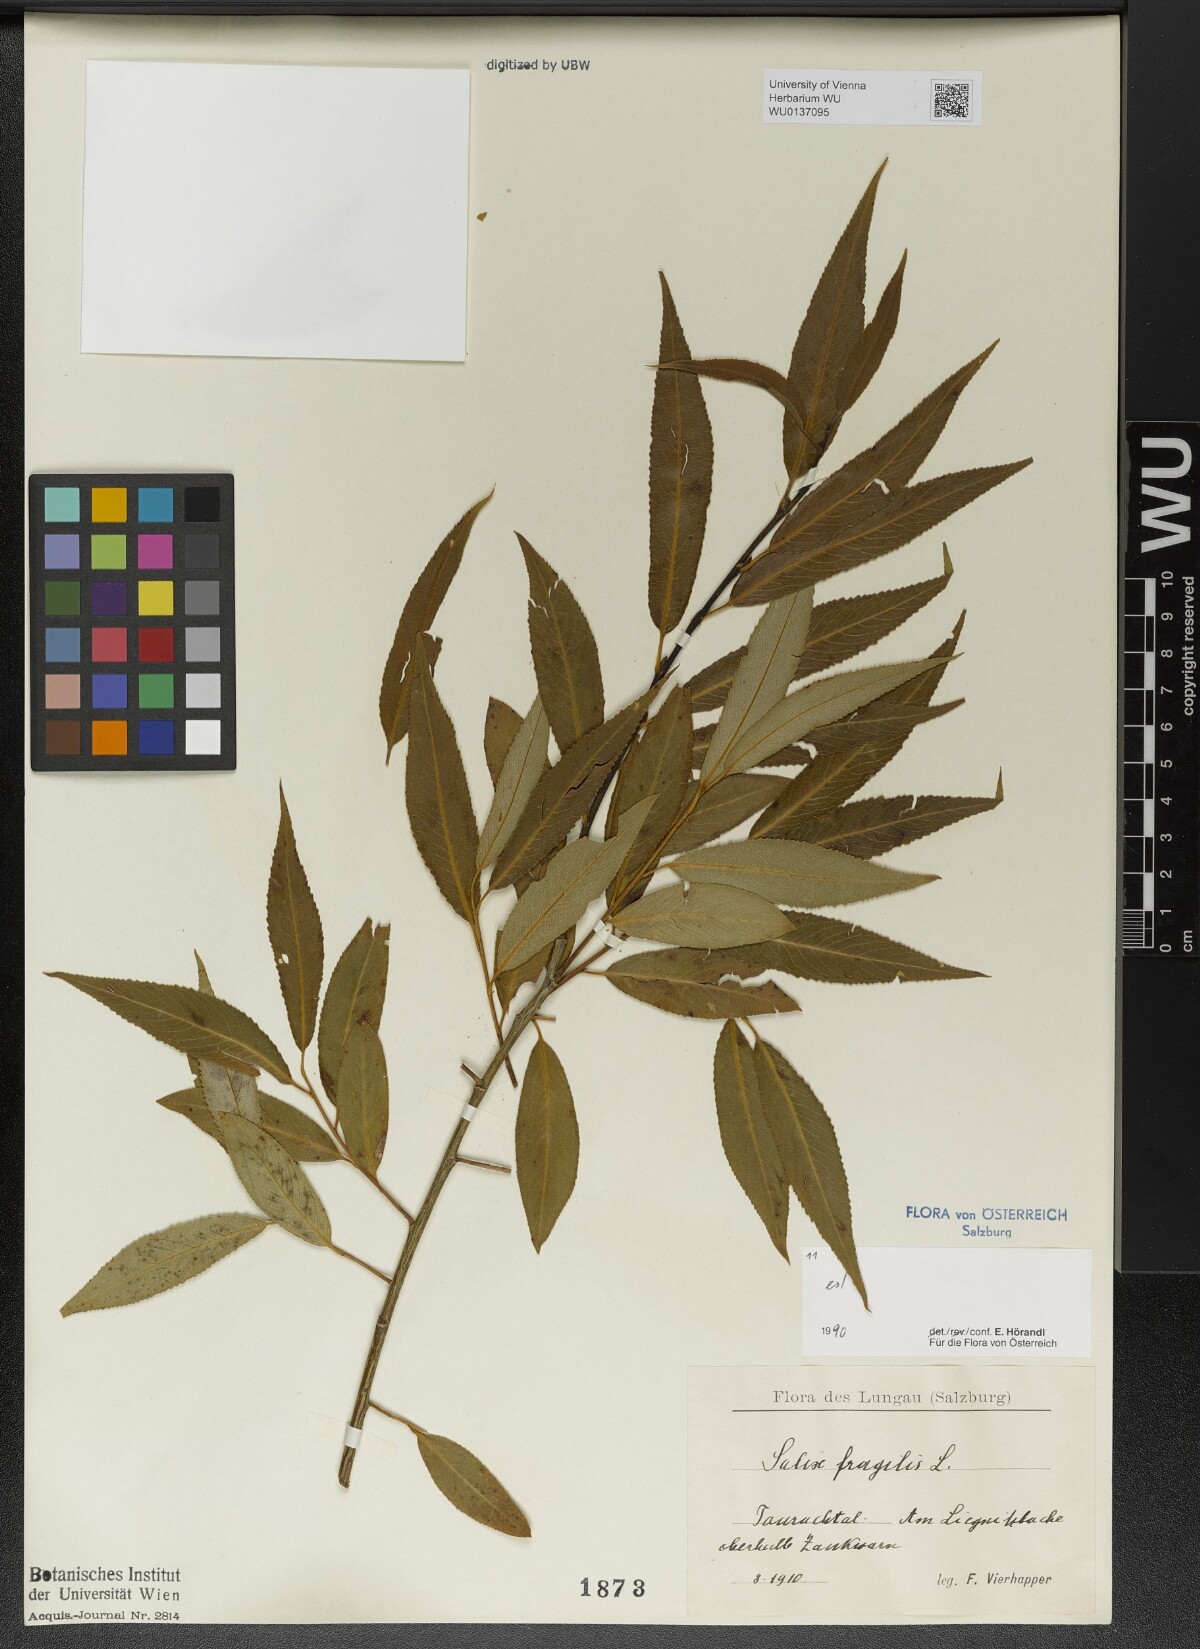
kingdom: Plantae
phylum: Tracheophyta
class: Magnoliopsida
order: Malpighiales
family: Salicaceae
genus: Salix
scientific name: Salix fragilis
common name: Crack willow
